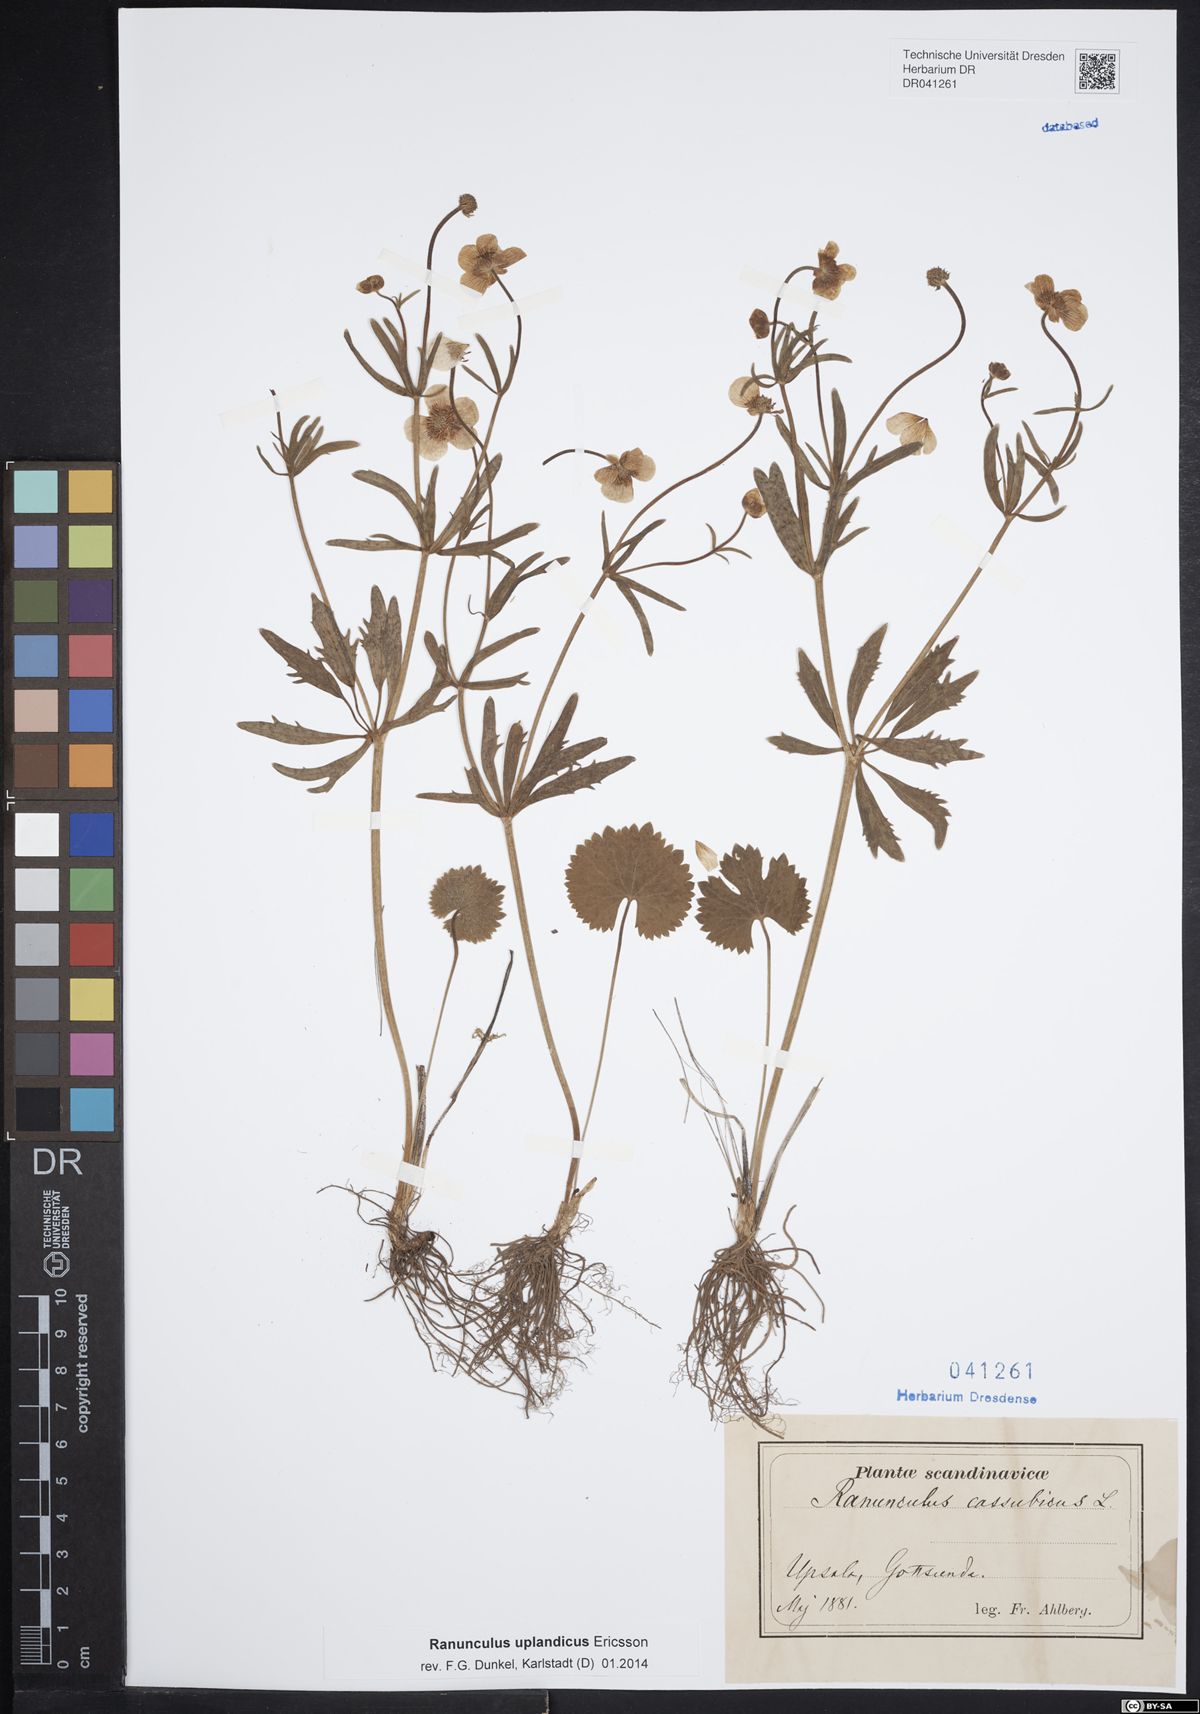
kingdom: Plantae
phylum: Tracheophyta
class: Magnoliopsida
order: Ranunculales
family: Ranunculaceae
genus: Ranunculus
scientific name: Ranunculus cassubicus
